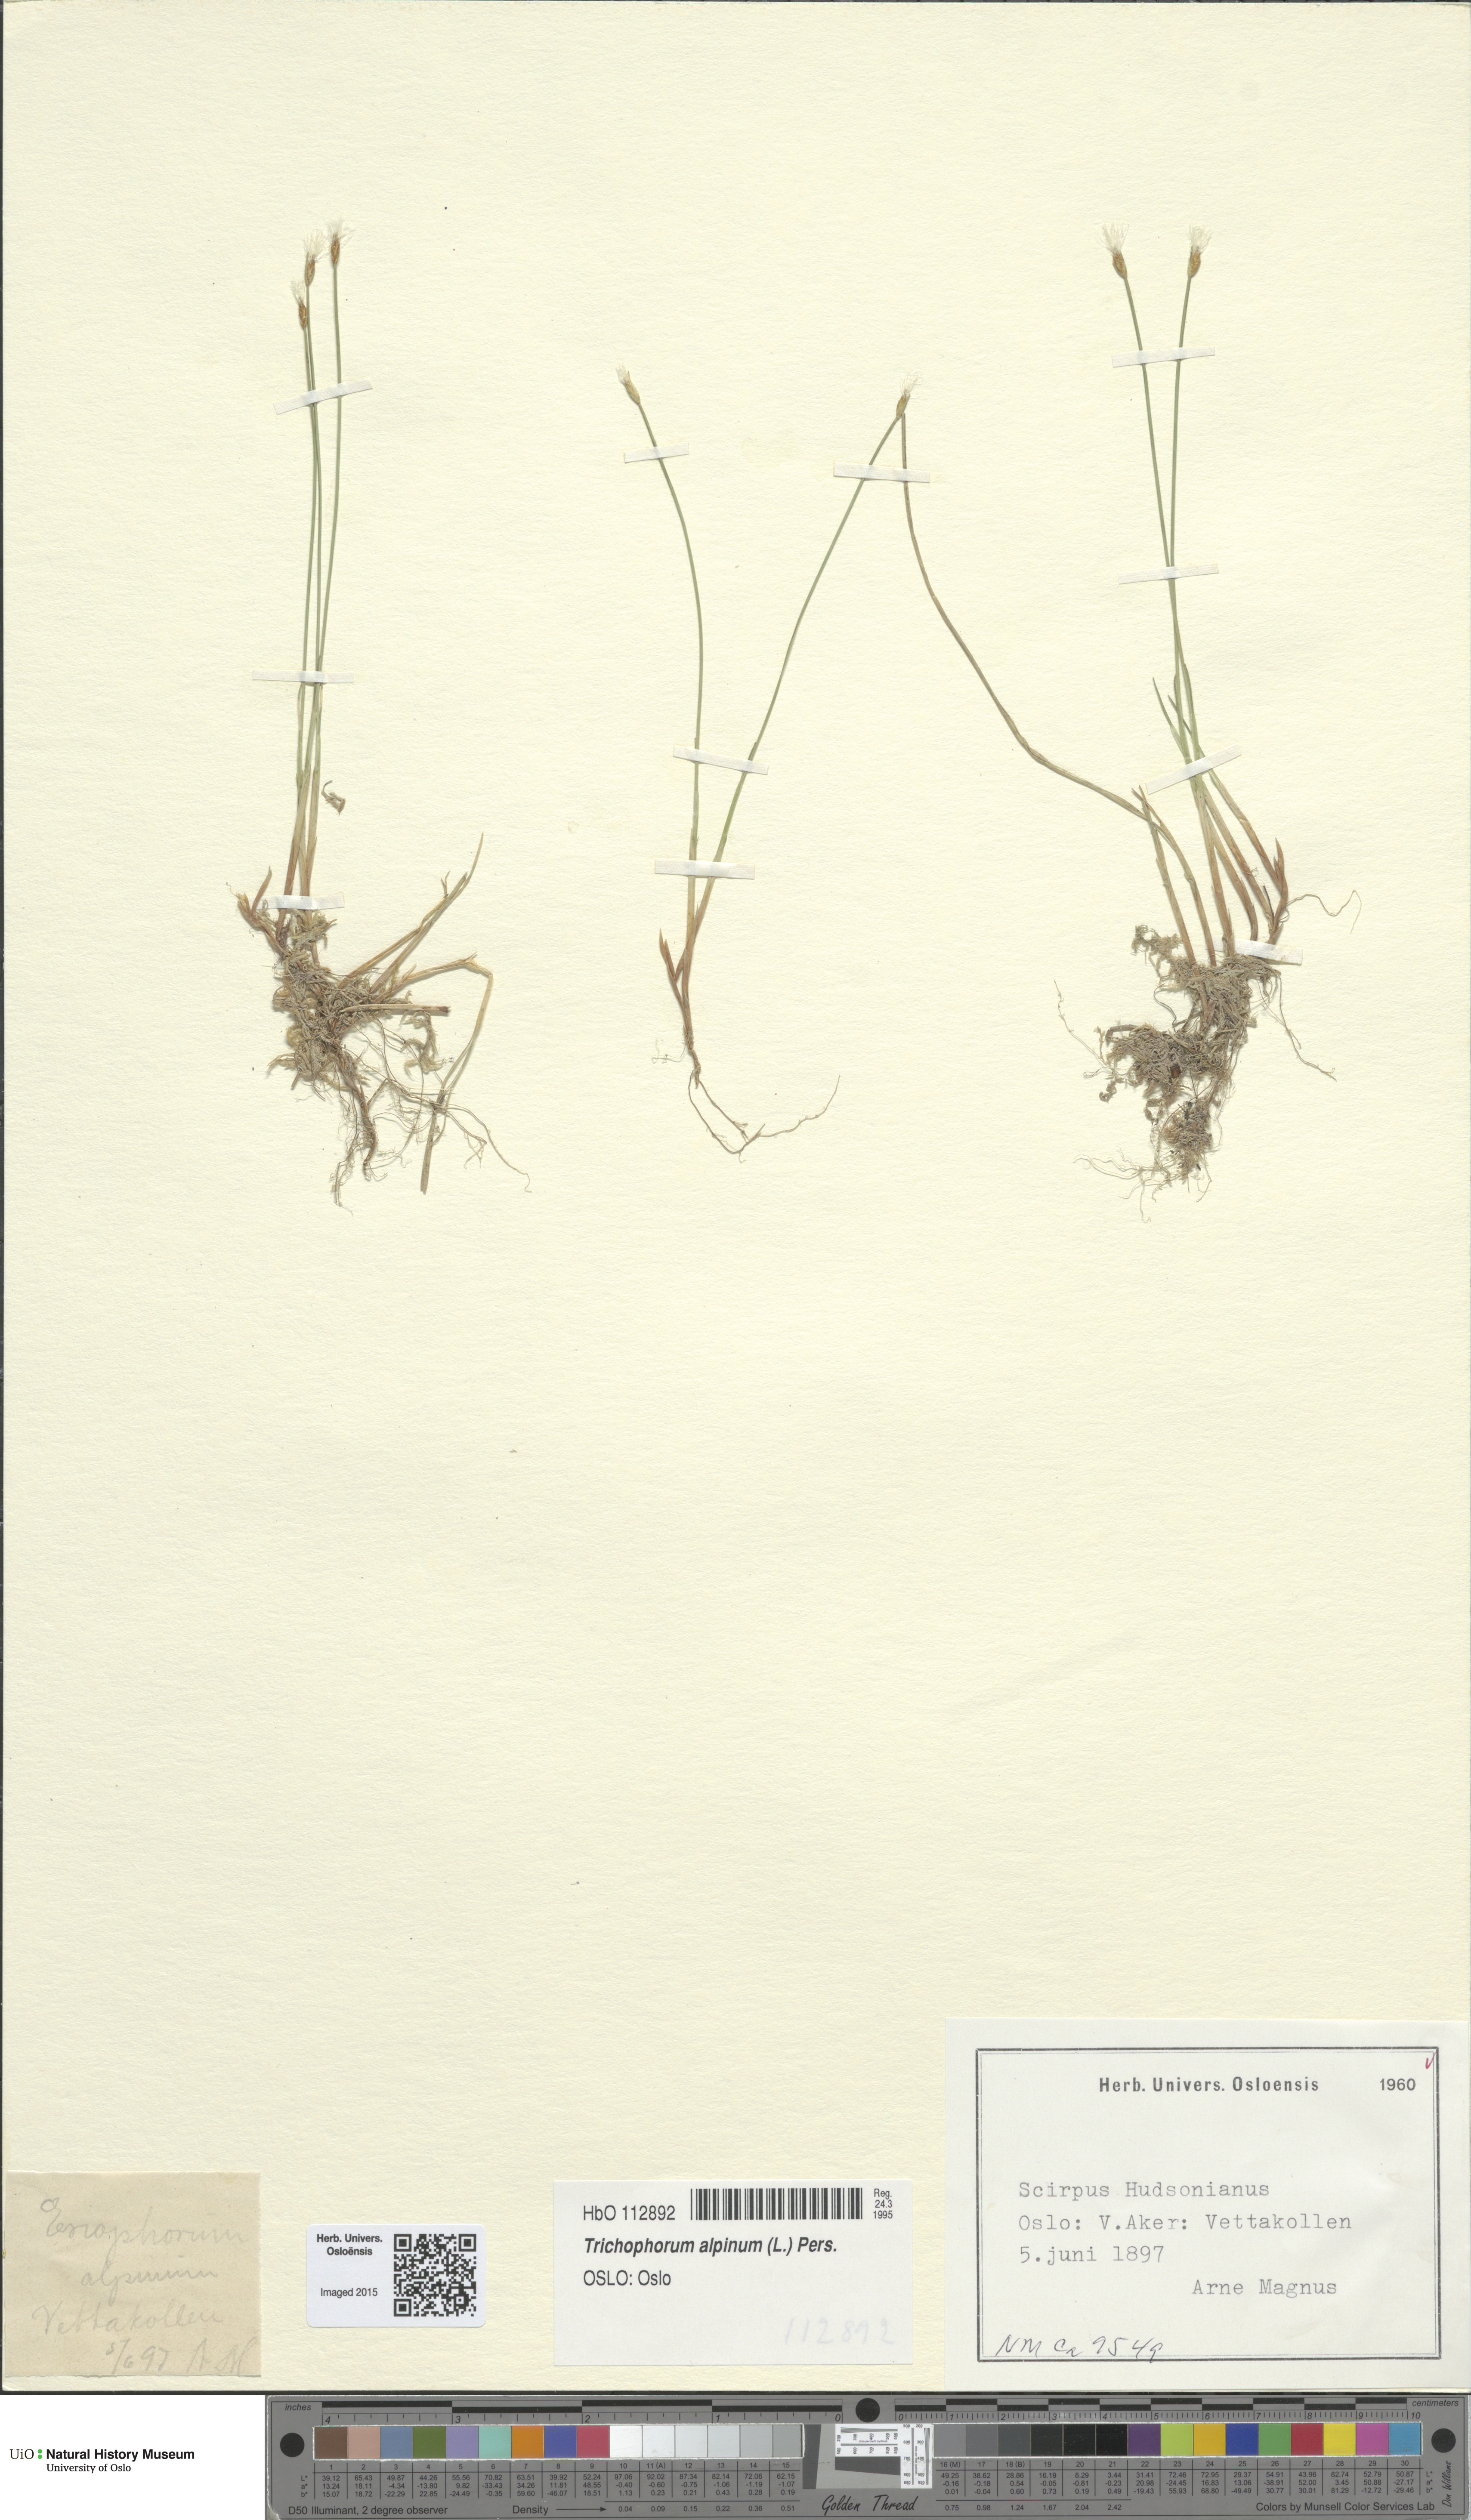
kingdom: Plantae
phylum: Tracheophyta
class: Liliopsida
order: Poales
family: Cyperaceae
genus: Trichophorum
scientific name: Trichophorum alpinum
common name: Alpine bulrush
